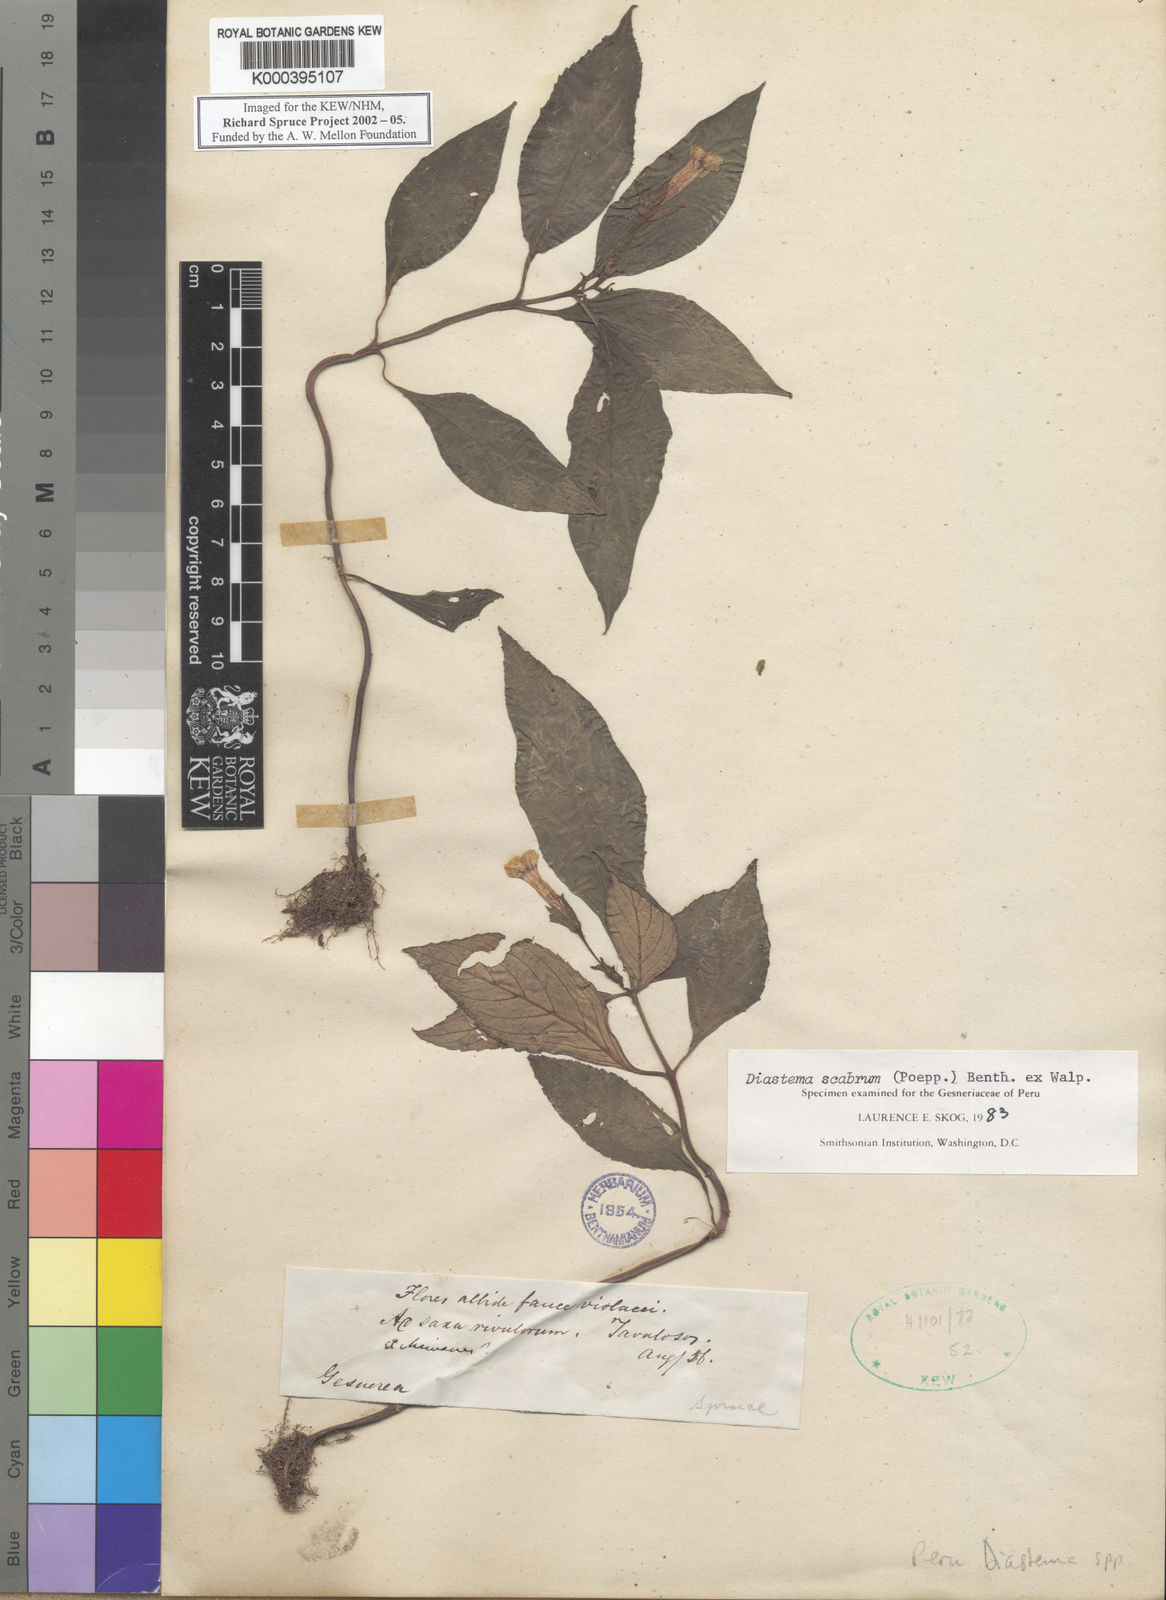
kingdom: Plantae
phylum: Tracheophyta
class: Magnoliopsida
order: Lamiales
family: Gesneriaceae
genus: Diastema
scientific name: Diastema scabrum
